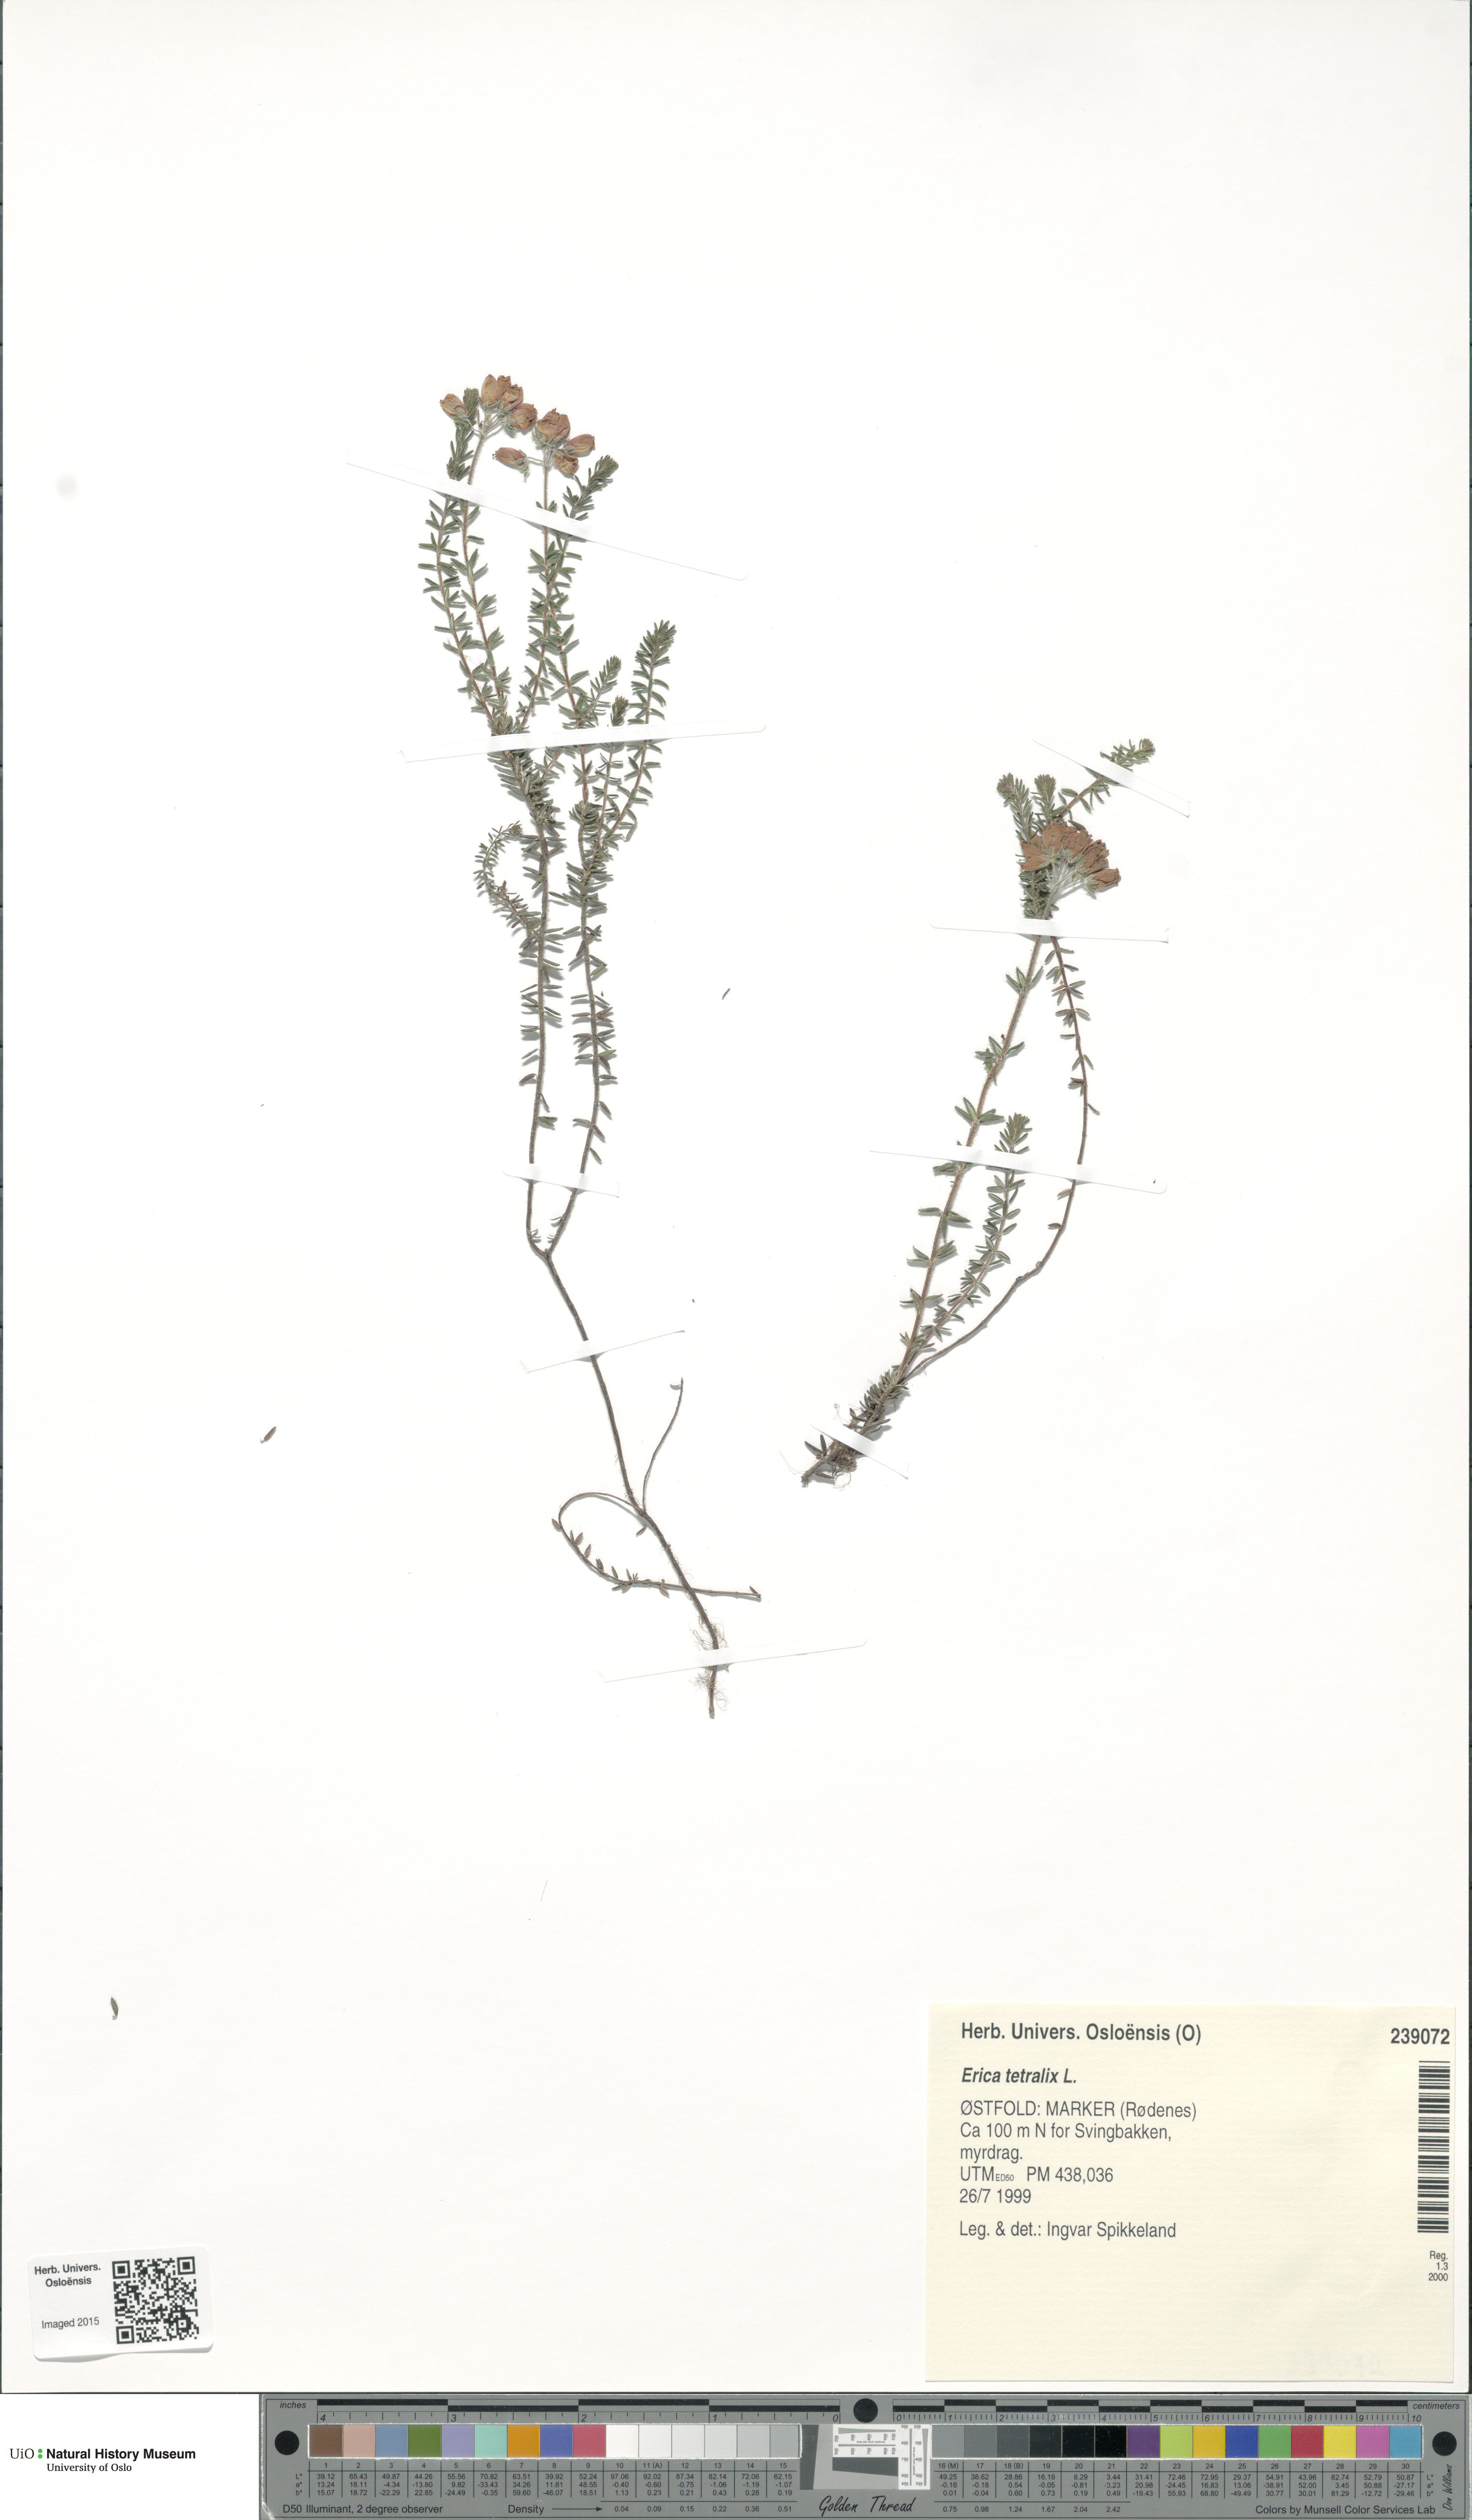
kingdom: Plantae
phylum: Tracheophyta
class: Magnoliopsida
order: Ericales
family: Ericaceae
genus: Erica
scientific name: Erica tetralix
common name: Cross-leaved heath
